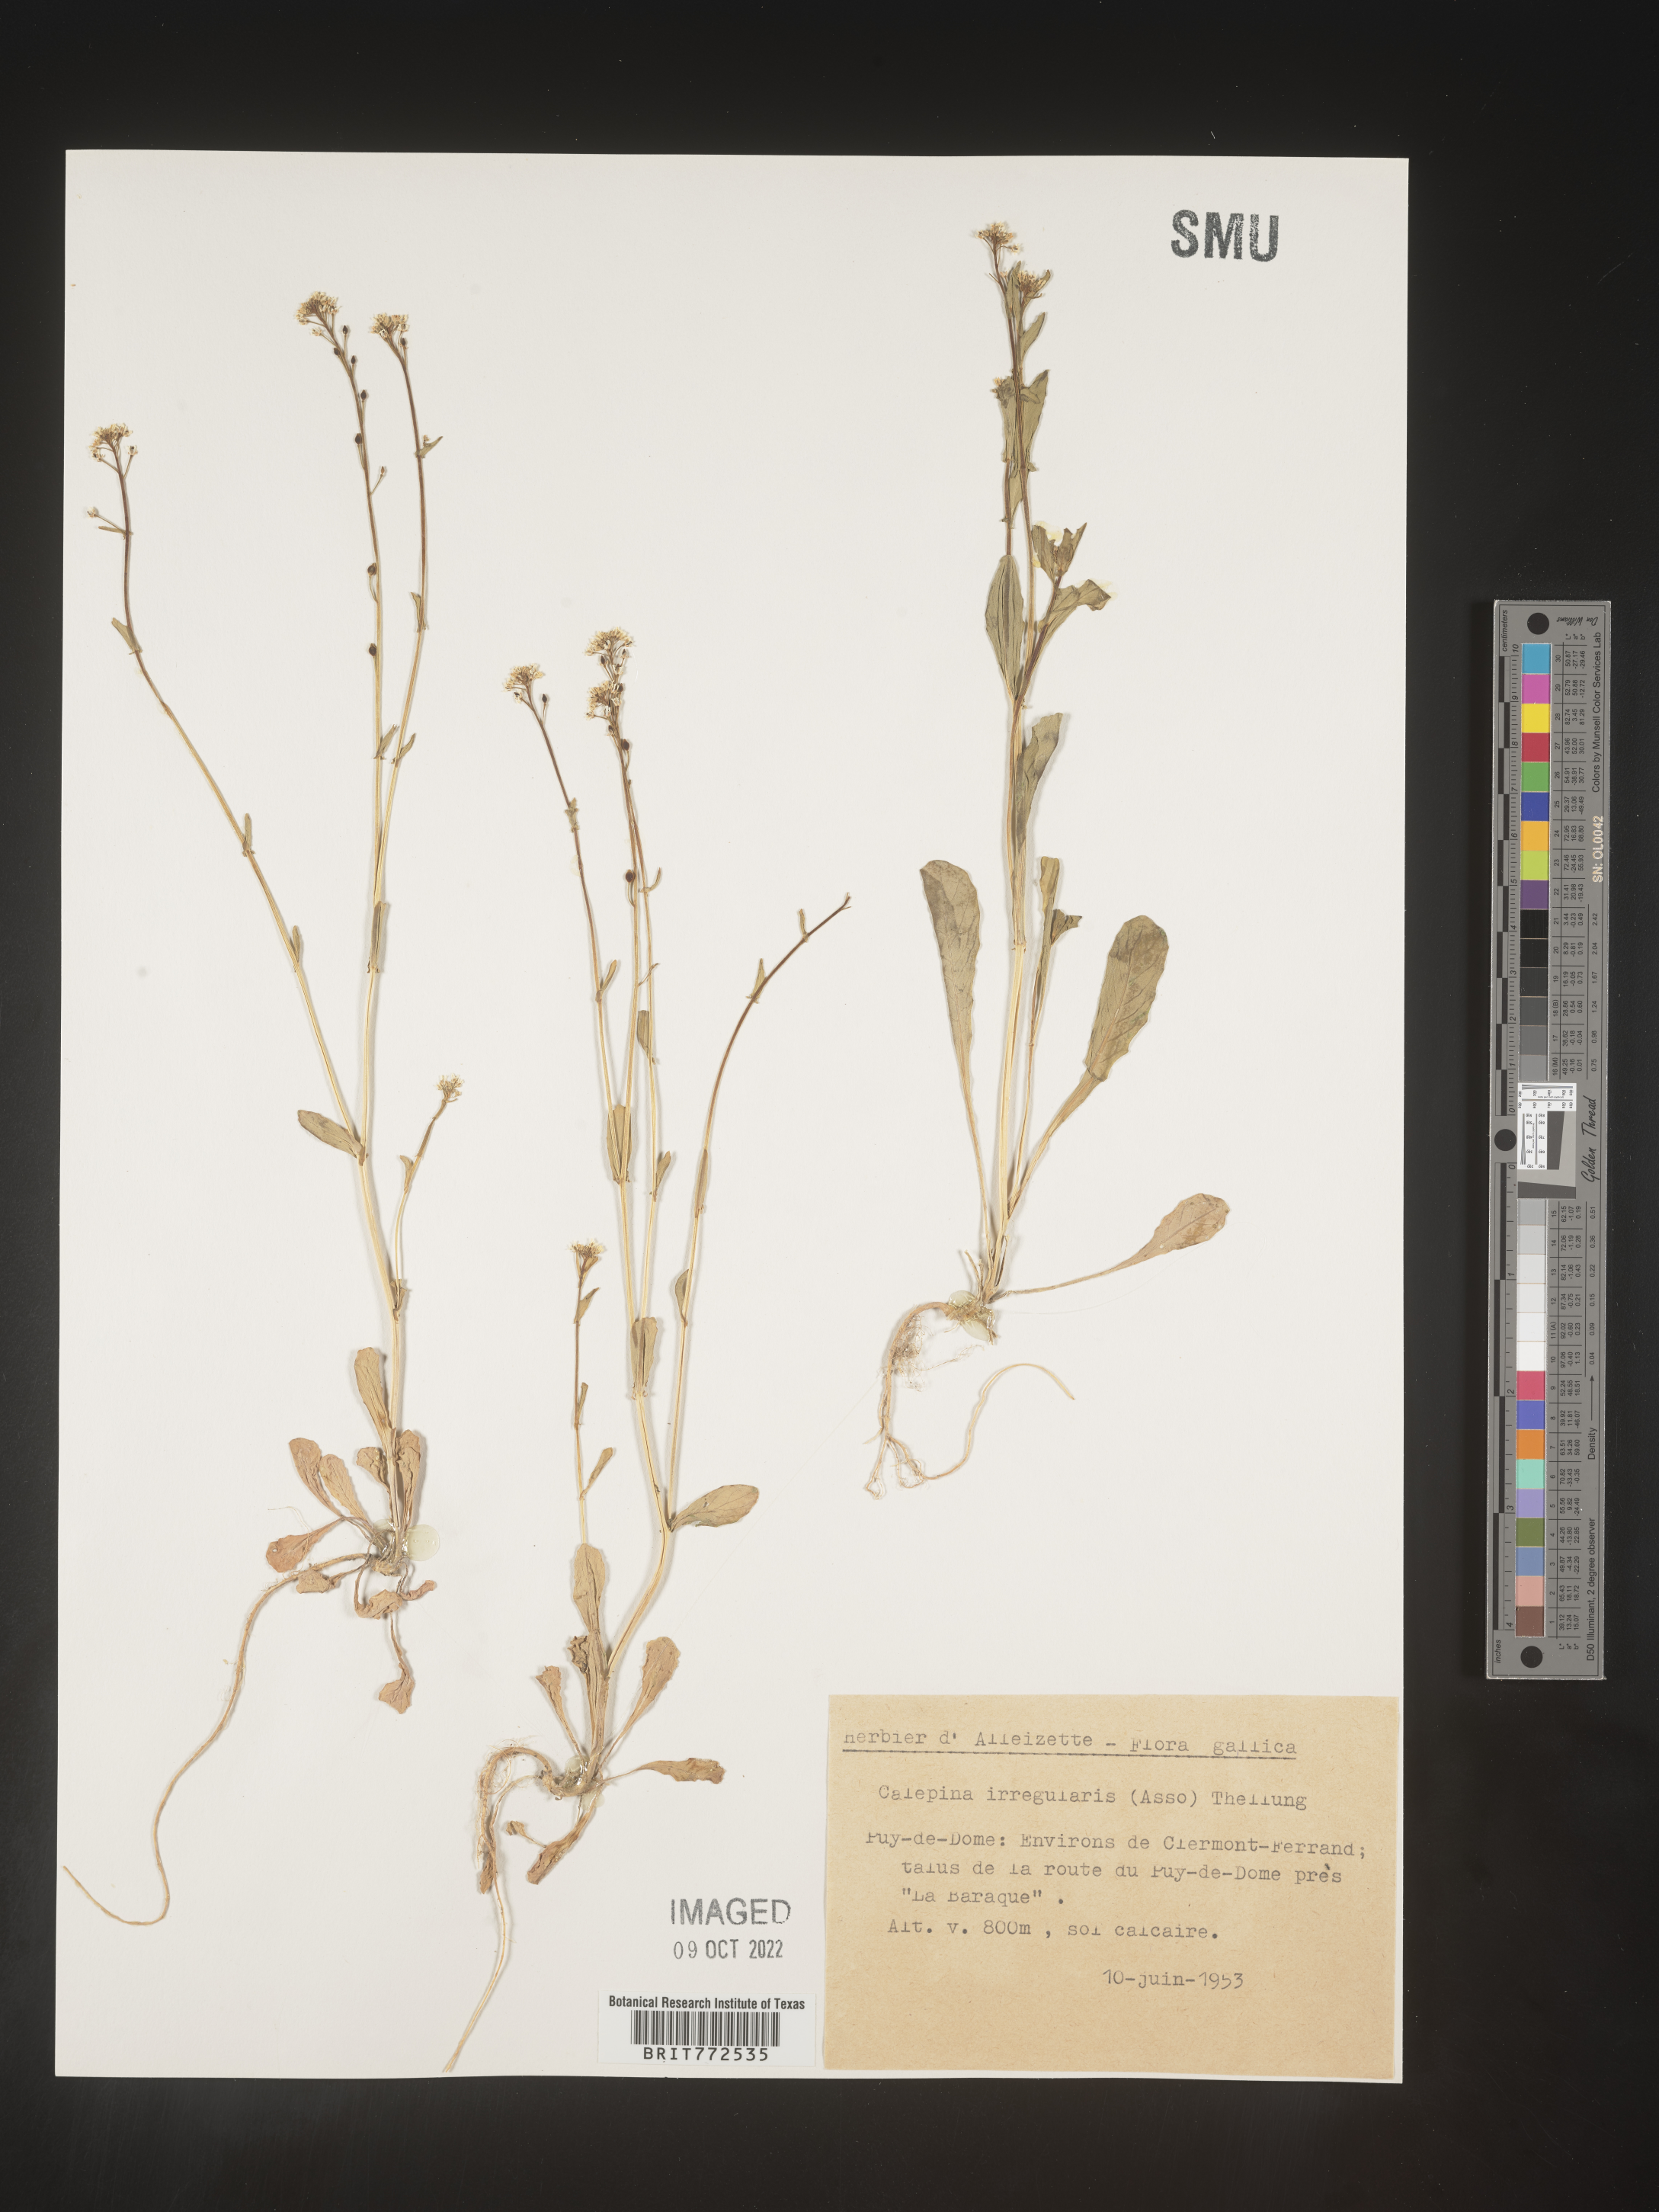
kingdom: Plantae
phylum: Tracheophyta
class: Magnoliopsida
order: Brassicales
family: Brassicaceae
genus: Calepina
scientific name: Calepina
